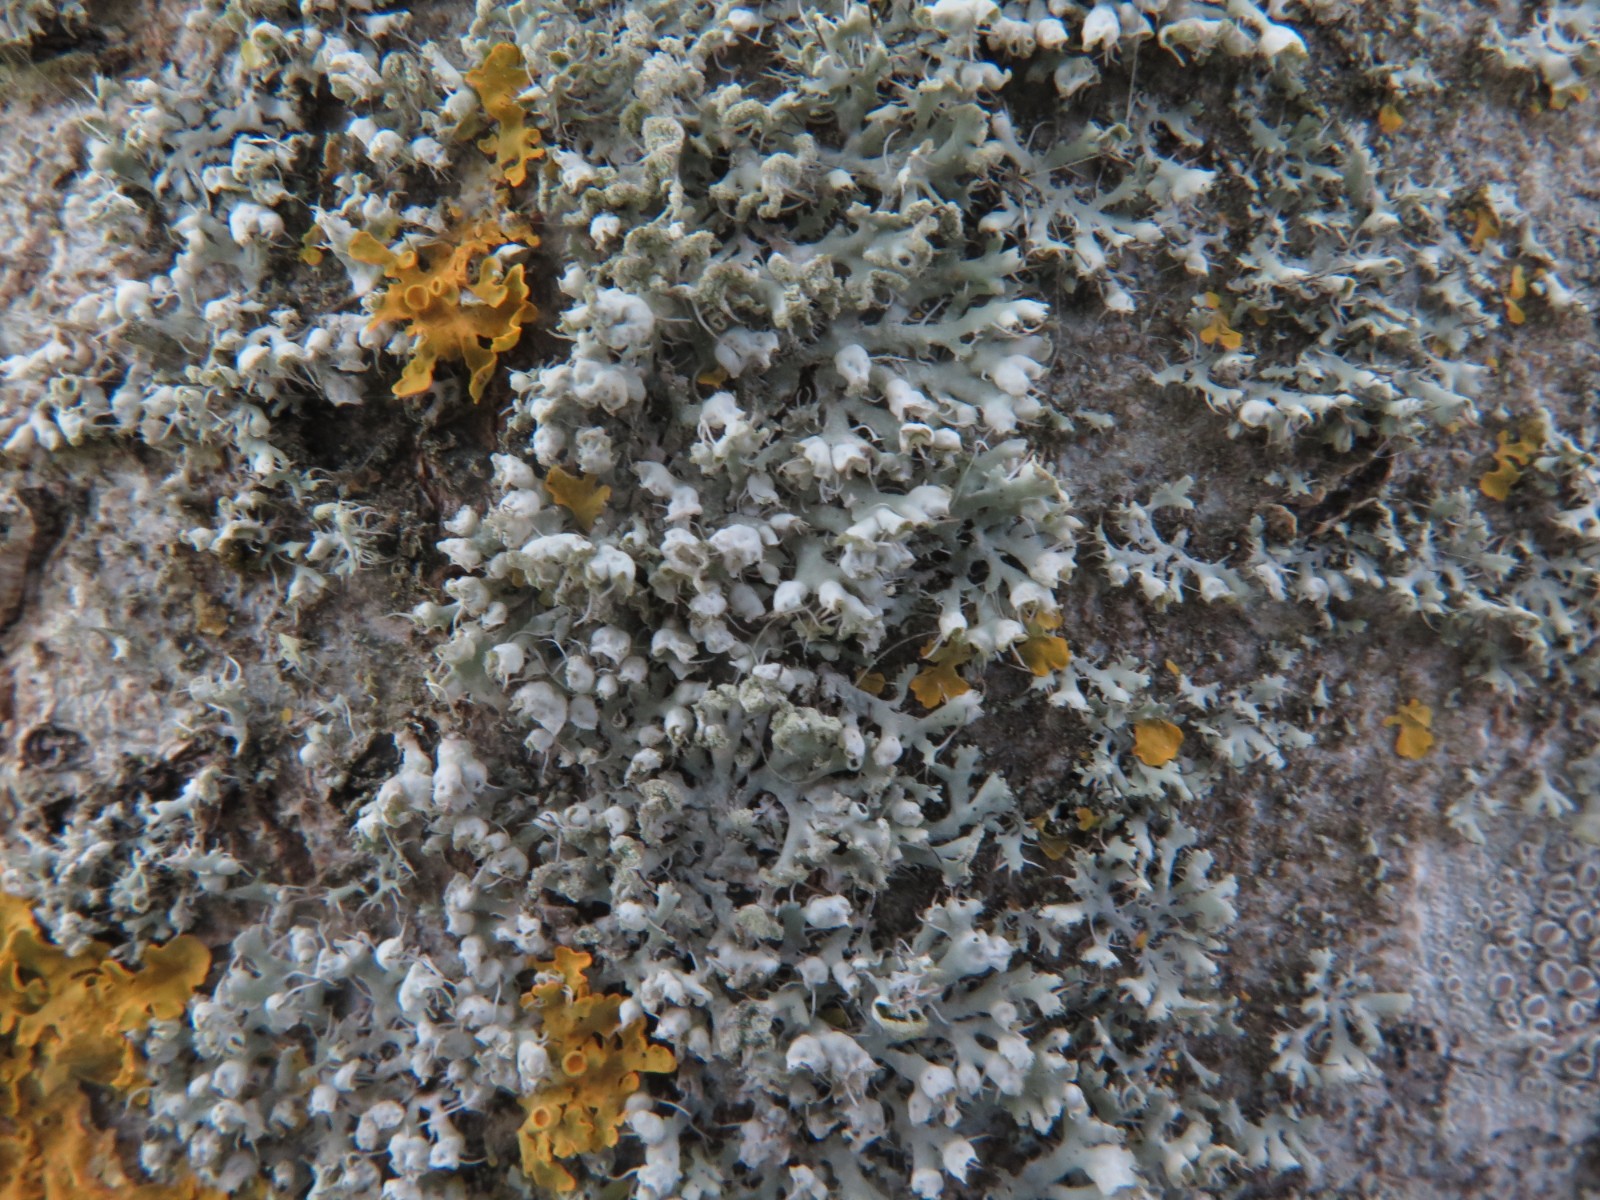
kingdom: Fungi
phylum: Ascomycota
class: Lecanoromycetes
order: Caliciales
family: Physciaceae
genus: Physcia
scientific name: Physcia adscendens
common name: hætte-rosetlav
